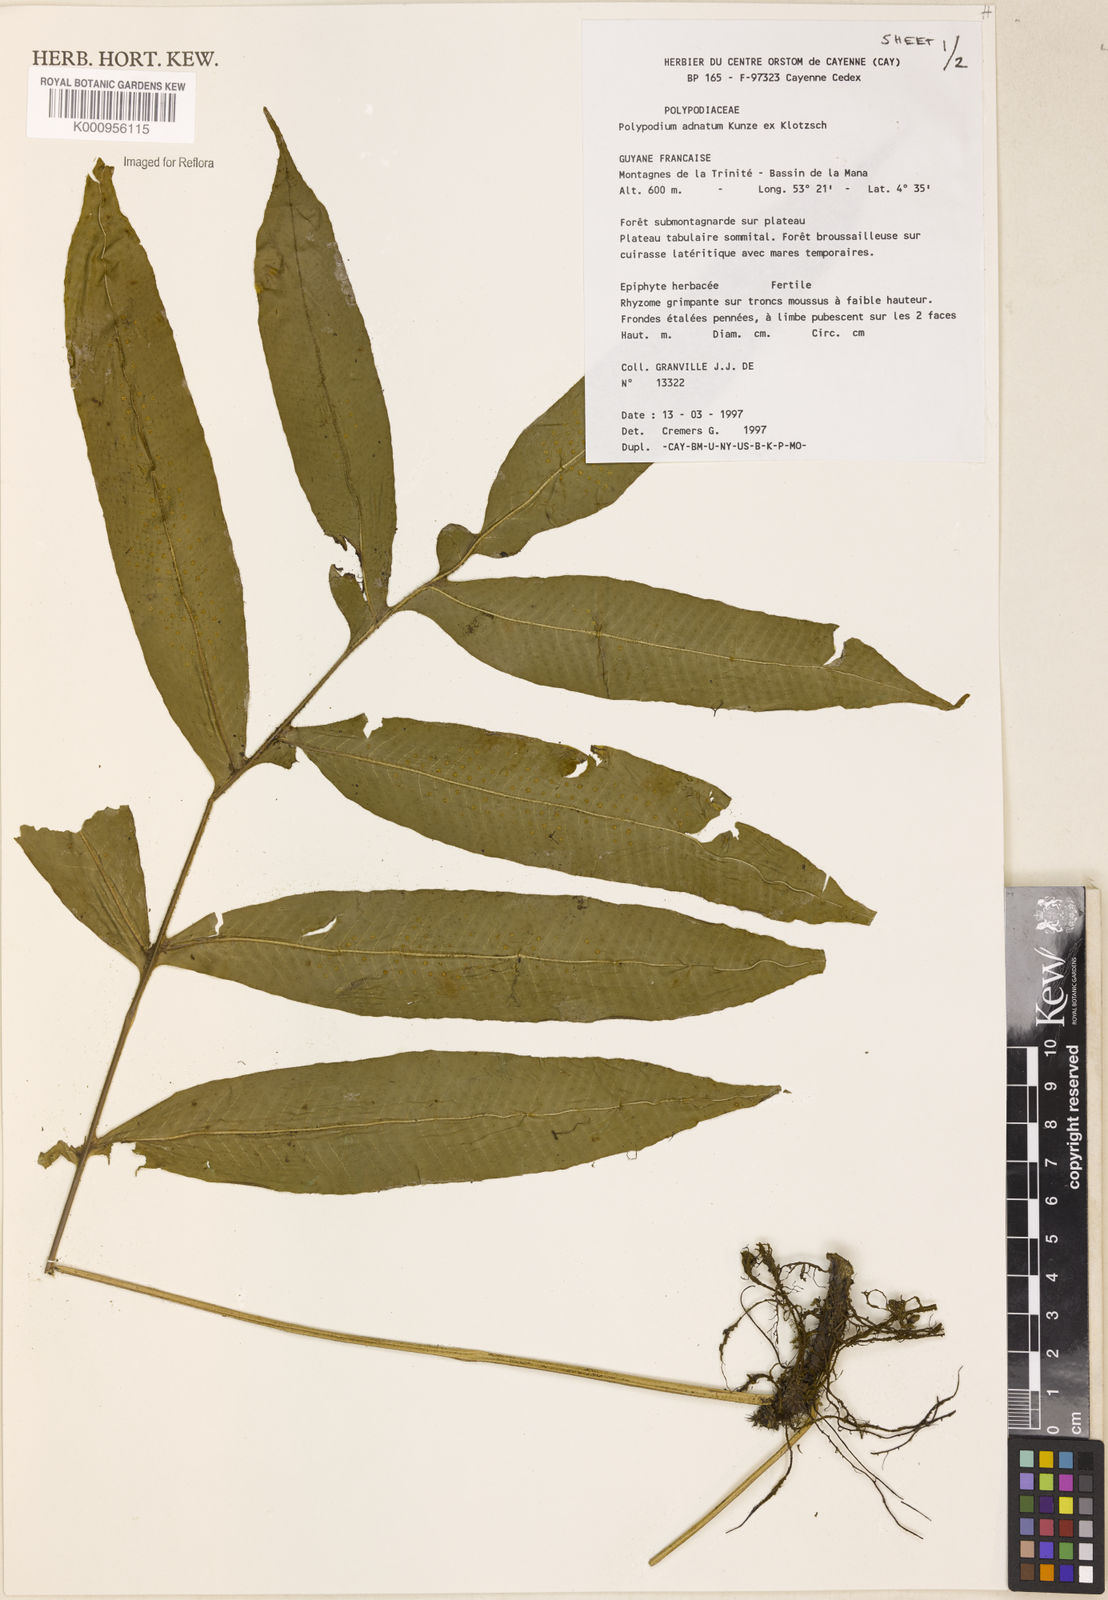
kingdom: Plantae
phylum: Tracheophyta
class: Polypodiopsida
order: Polypodiales
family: Polypodiaceae
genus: Polypodium
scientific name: Polypodium
